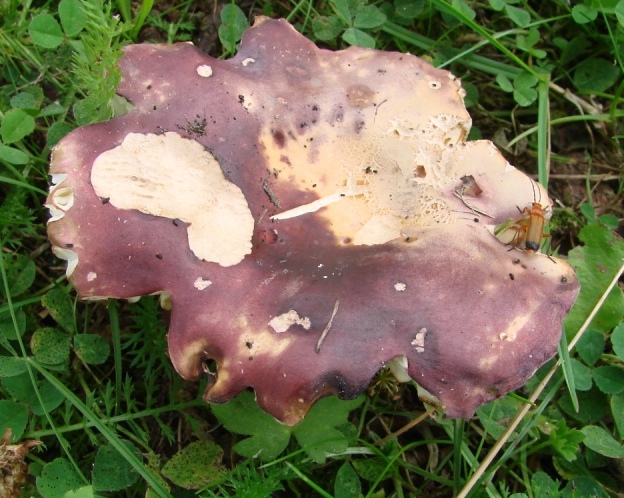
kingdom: Fungi
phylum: Basidiomycota
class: Agaricomycetes
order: Russulales
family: Russulaceae
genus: Russula
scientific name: Russula seperina
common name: rødmende skørhat
